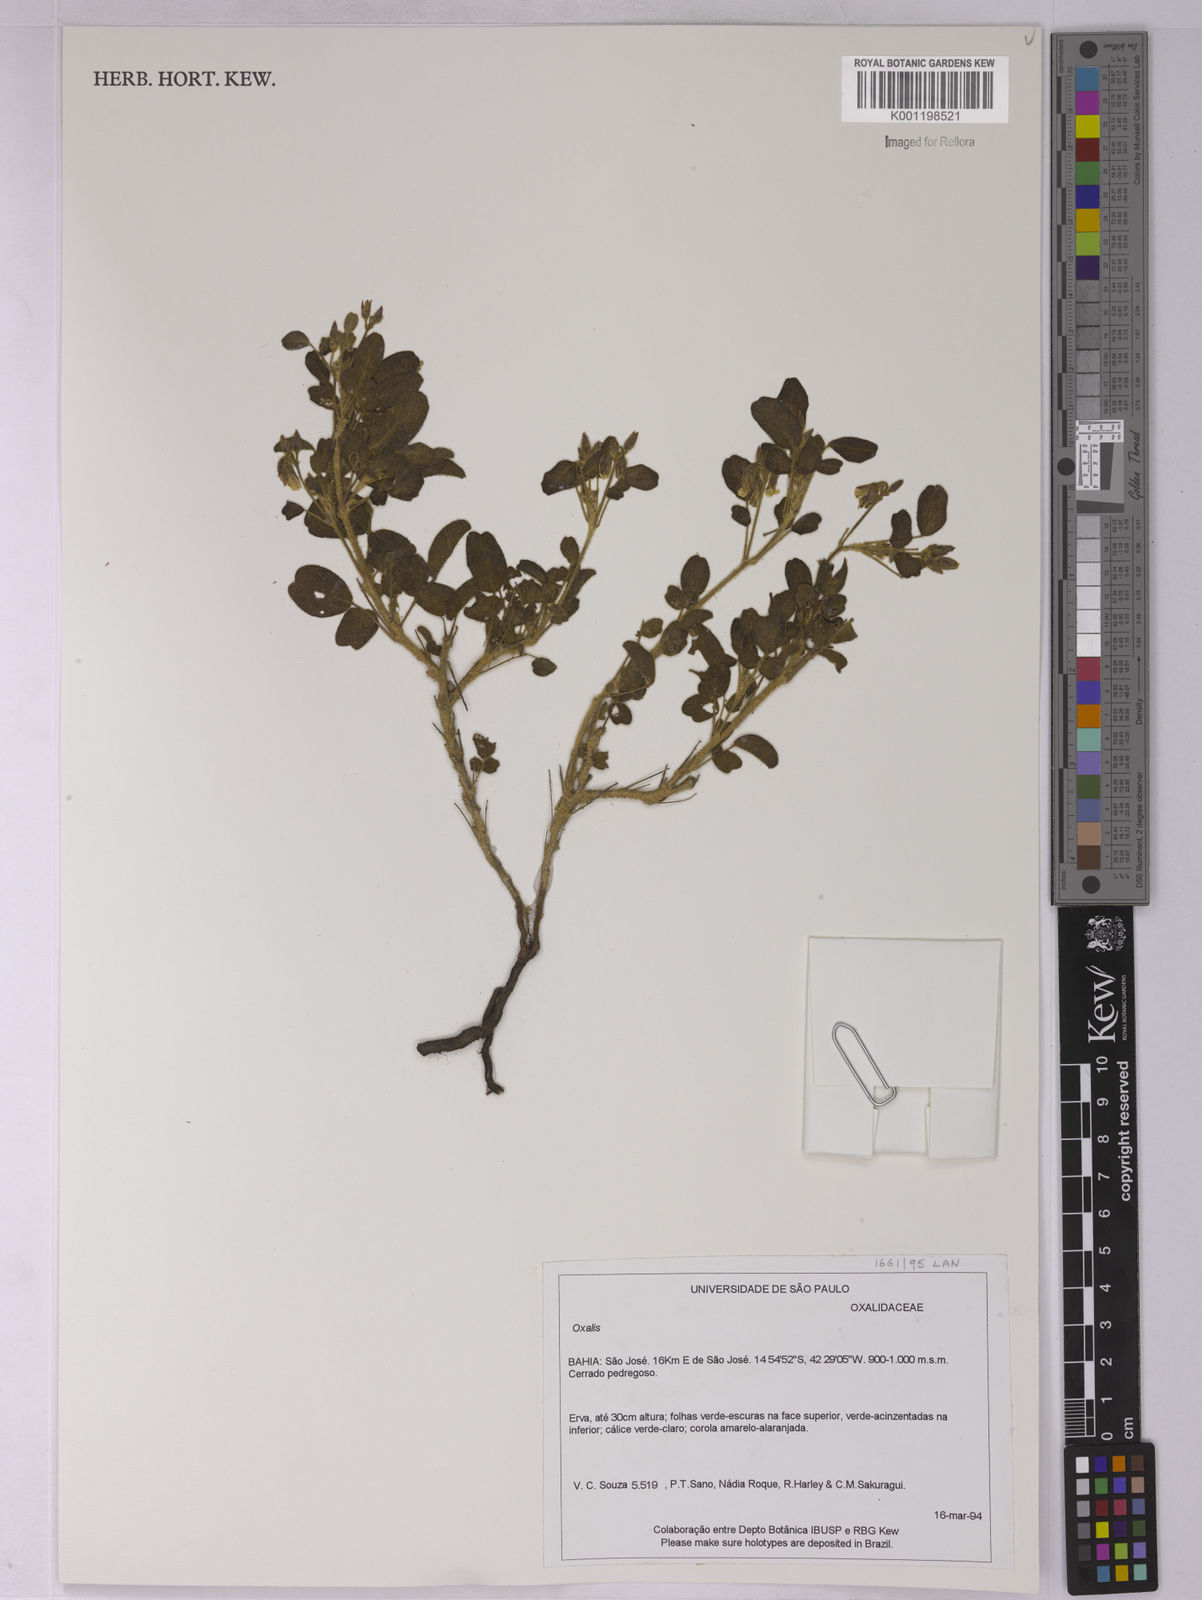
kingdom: Plantae
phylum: Tracheophyta
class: Magnoliopsida
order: Oxalidales
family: Oxalidaceae
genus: Oxalis
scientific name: Oxalis
